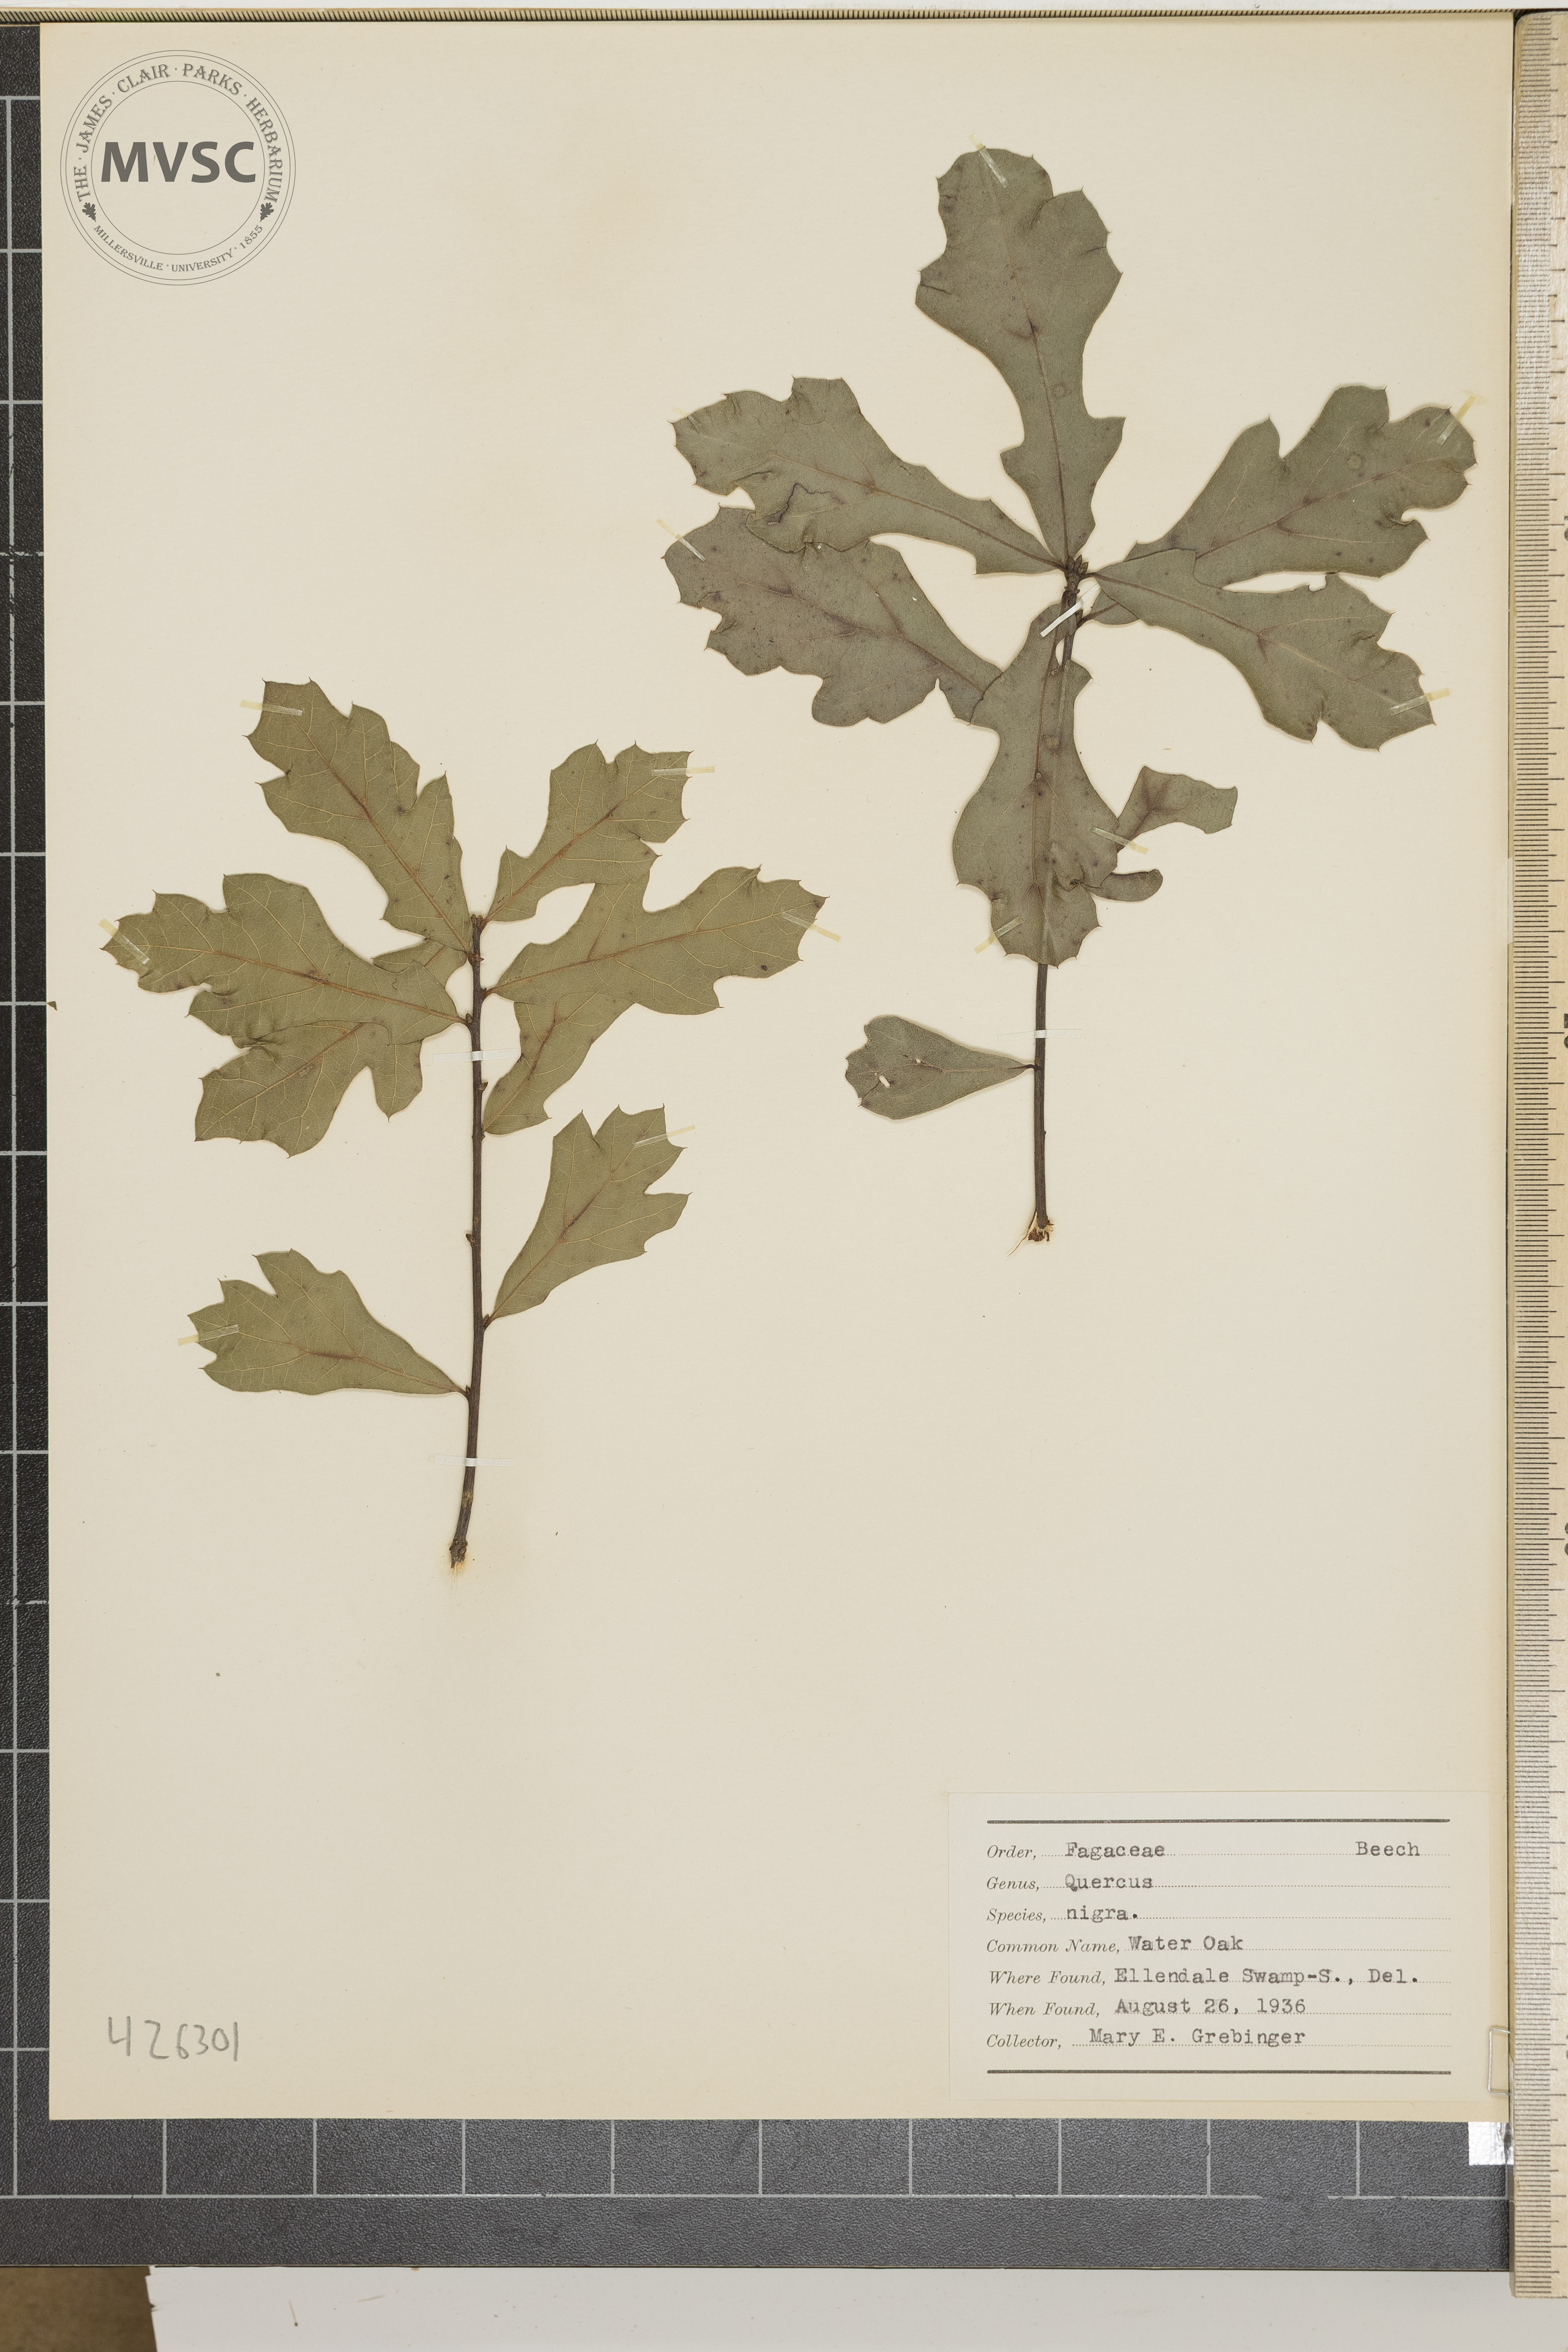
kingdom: Plantae
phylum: Tracheophyta
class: Magnoliopsida
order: Fagales
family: Fagaceae
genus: Quercus
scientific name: Quercus nigra
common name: Water oak
